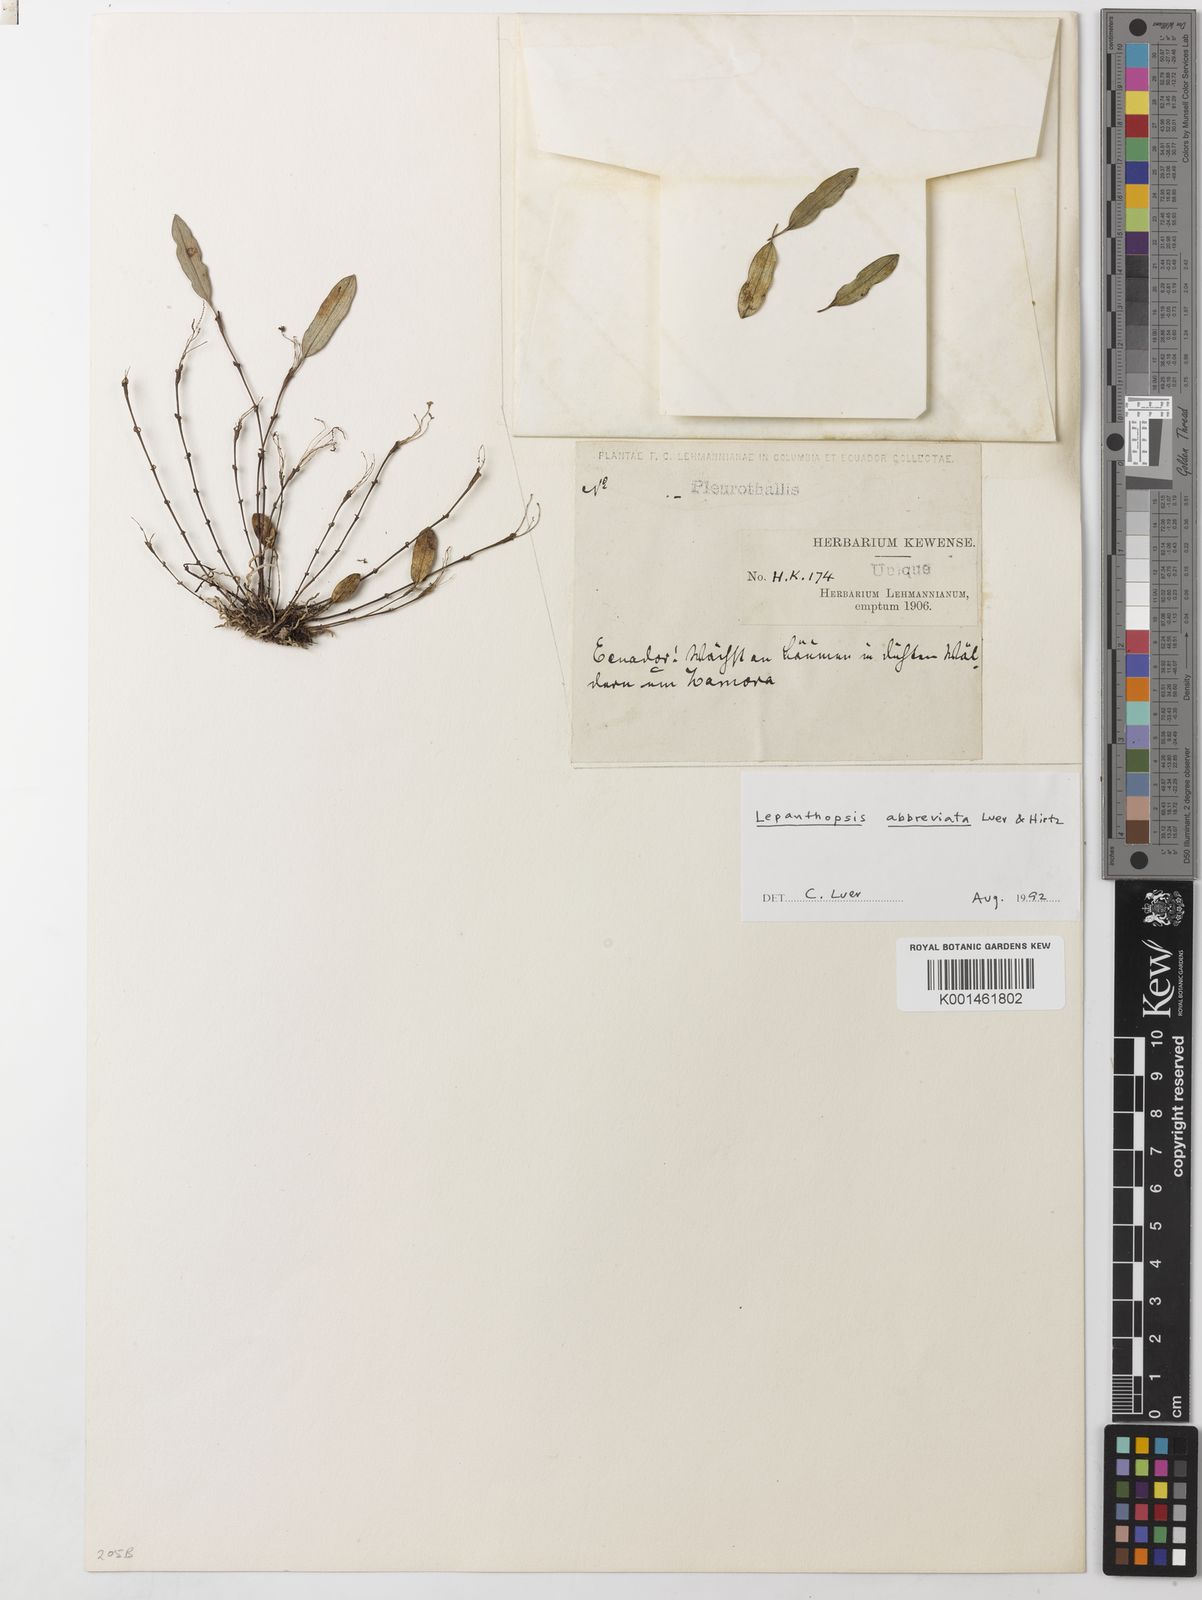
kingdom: Plantae
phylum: Tracheophyta
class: Liliopsida
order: Asparagales
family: Orchidaceae
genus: Lepanthopsis
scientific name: Lepanthopsis abbreviata
